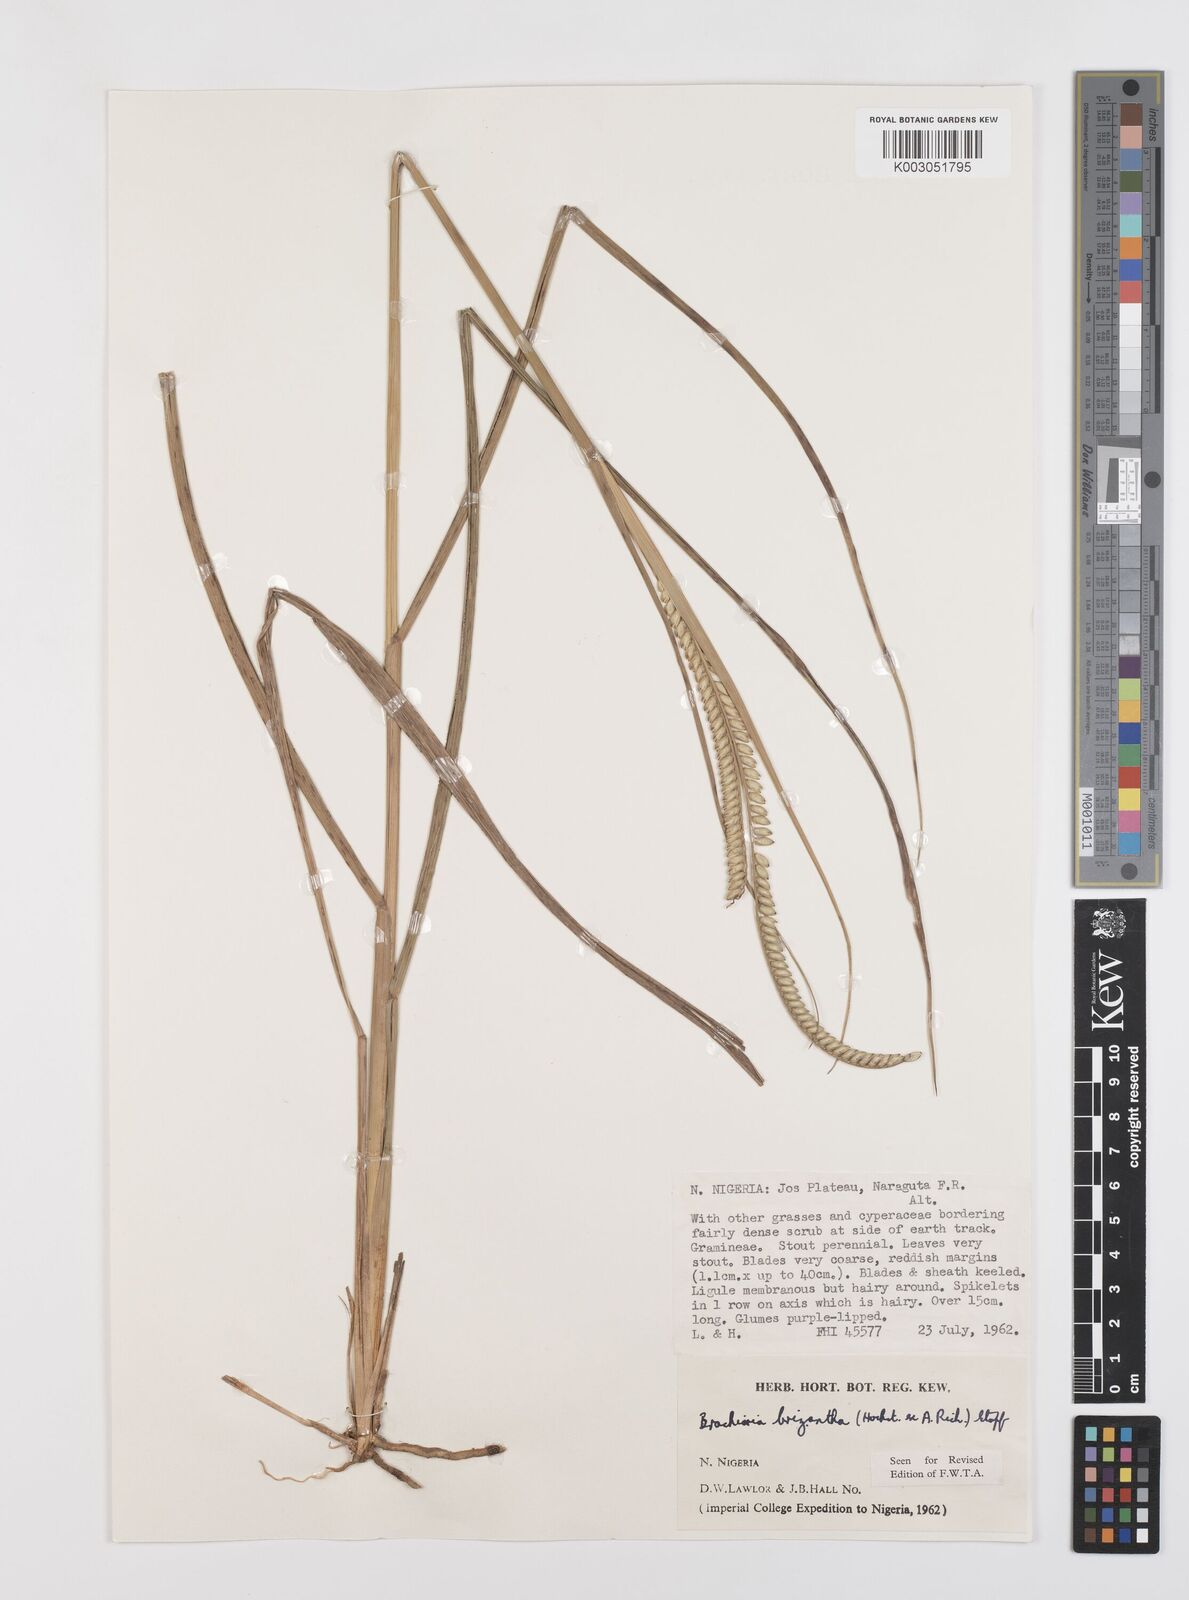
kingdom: Plantae
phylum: Tracheophyta
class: Liliopsida
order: Poales
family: Poaceae
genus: Urochloa
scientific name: Urochloa brizantha
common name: Palisade signalgrass
